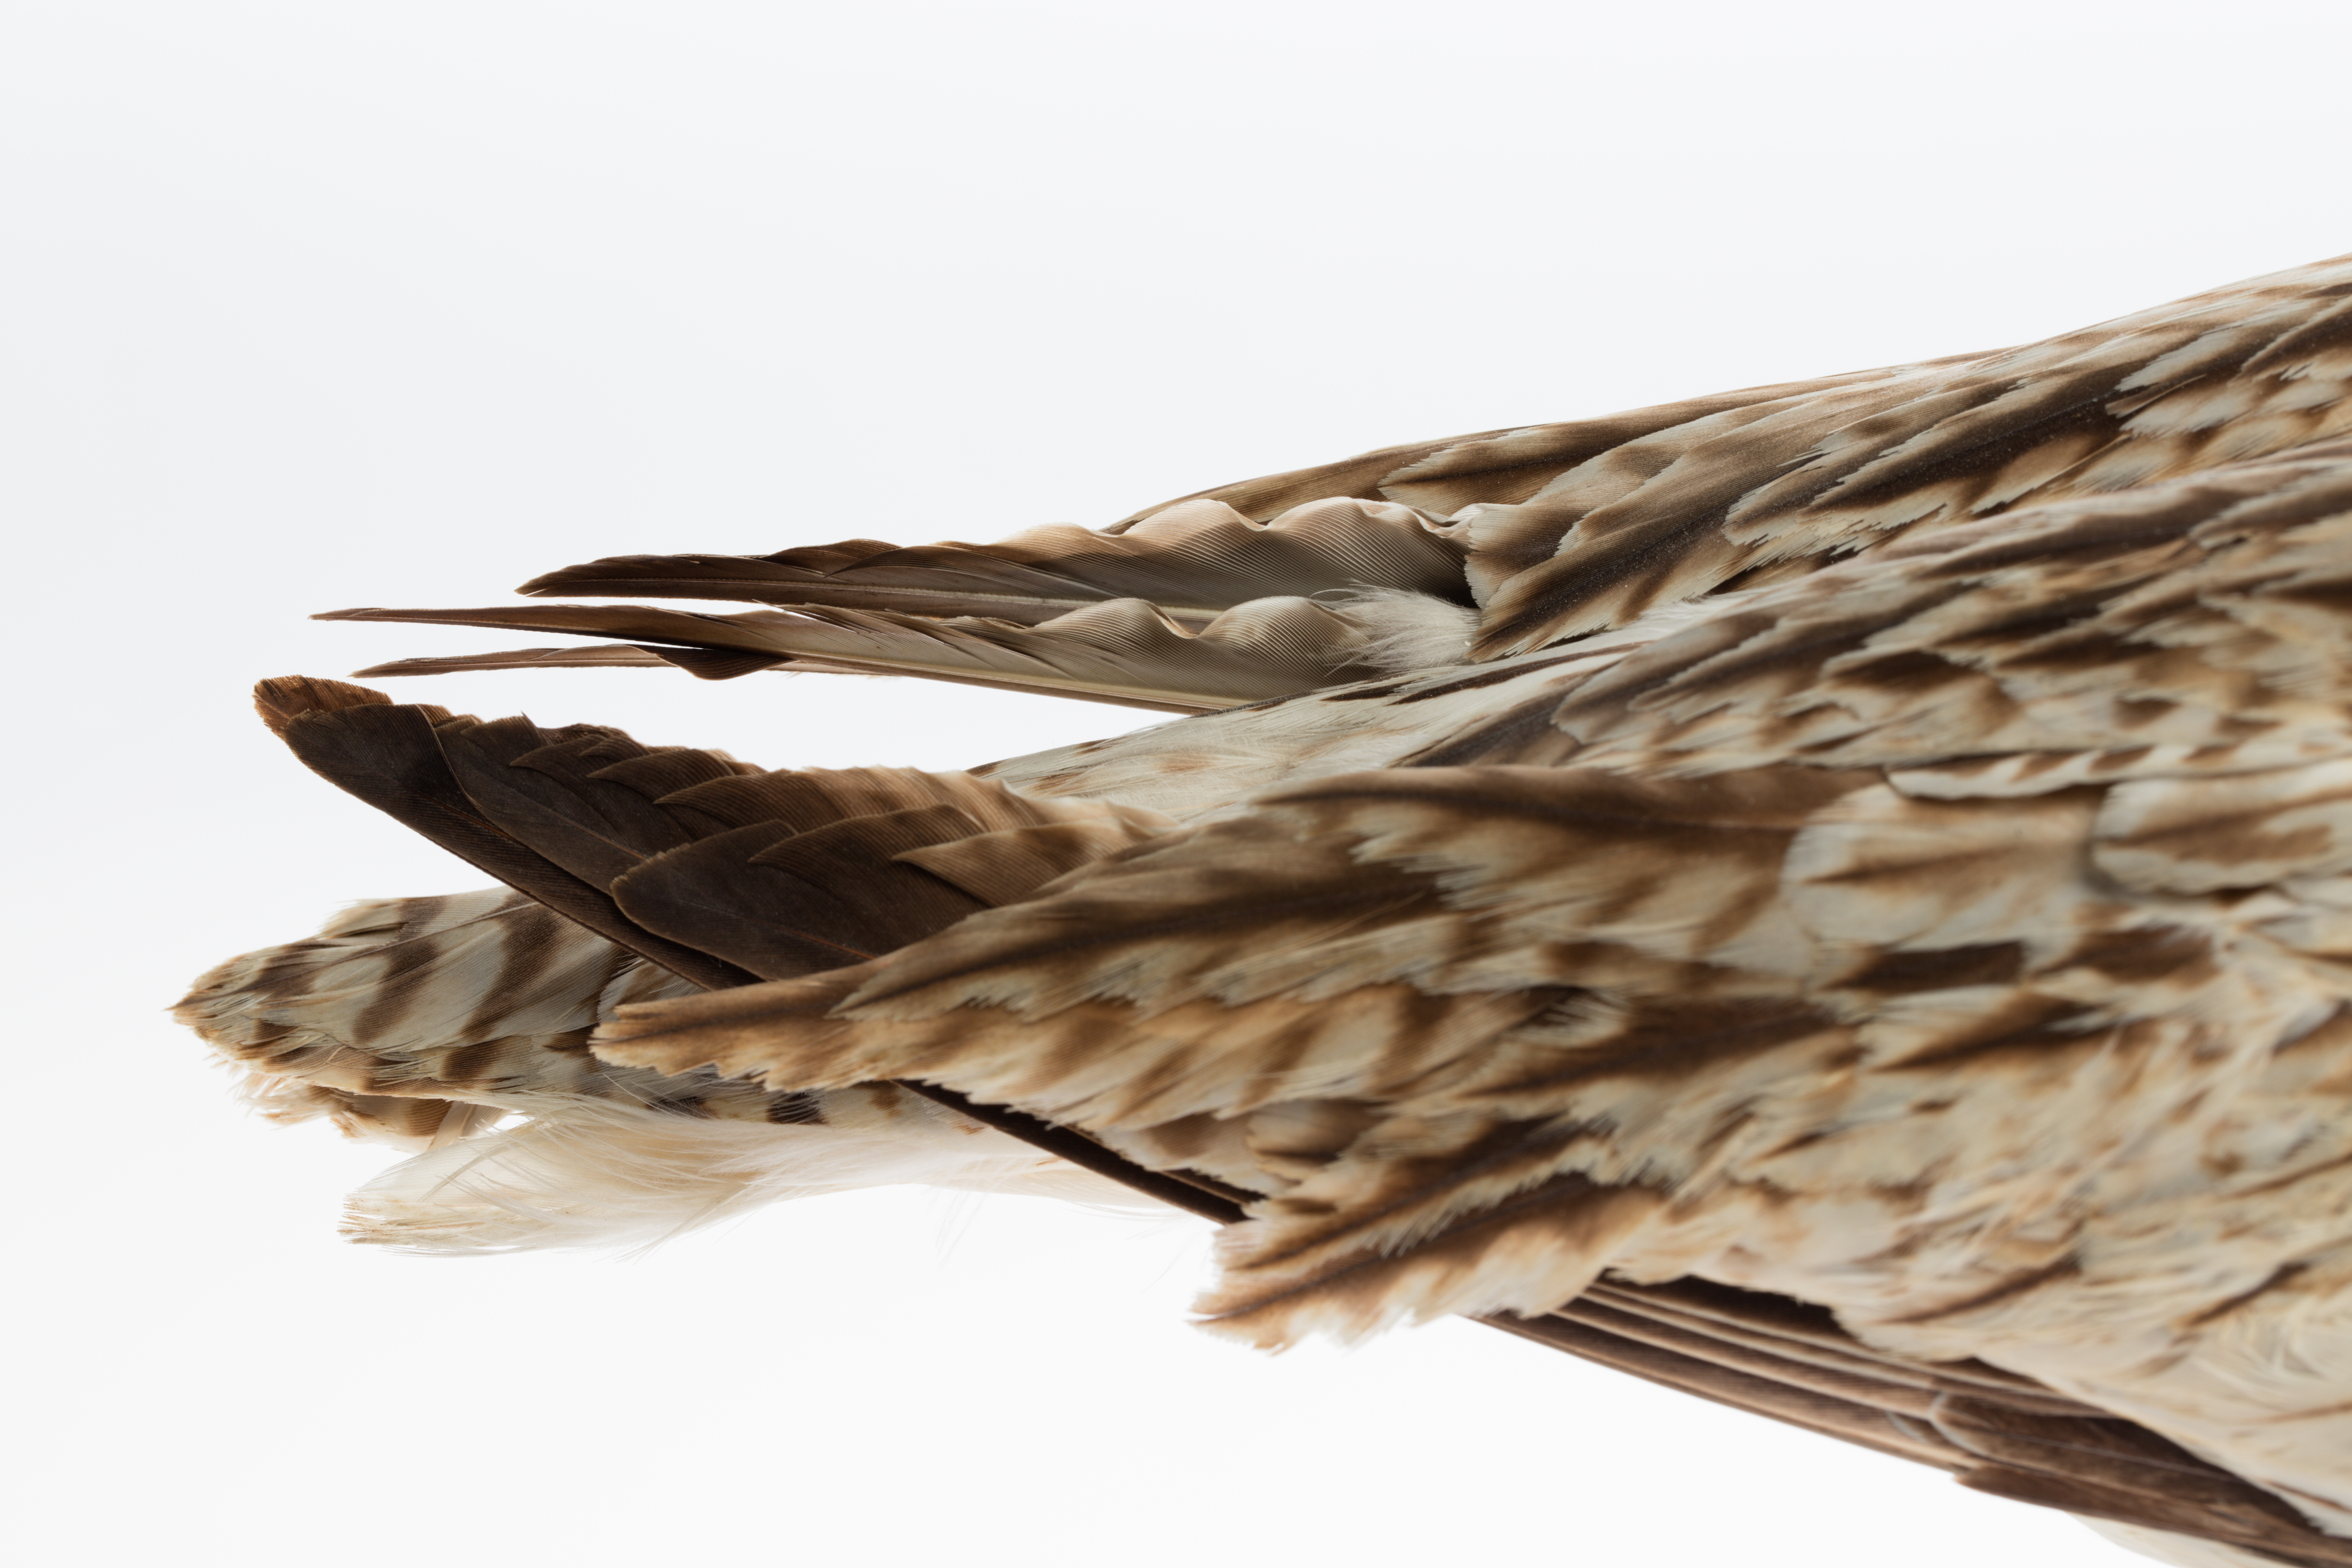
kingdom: Animalia
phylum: Chordata
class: Aves
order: Charadriiformes
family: Scolopacidae
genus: Numenius
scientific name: Numenius arquata
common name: Eurasian curlew
